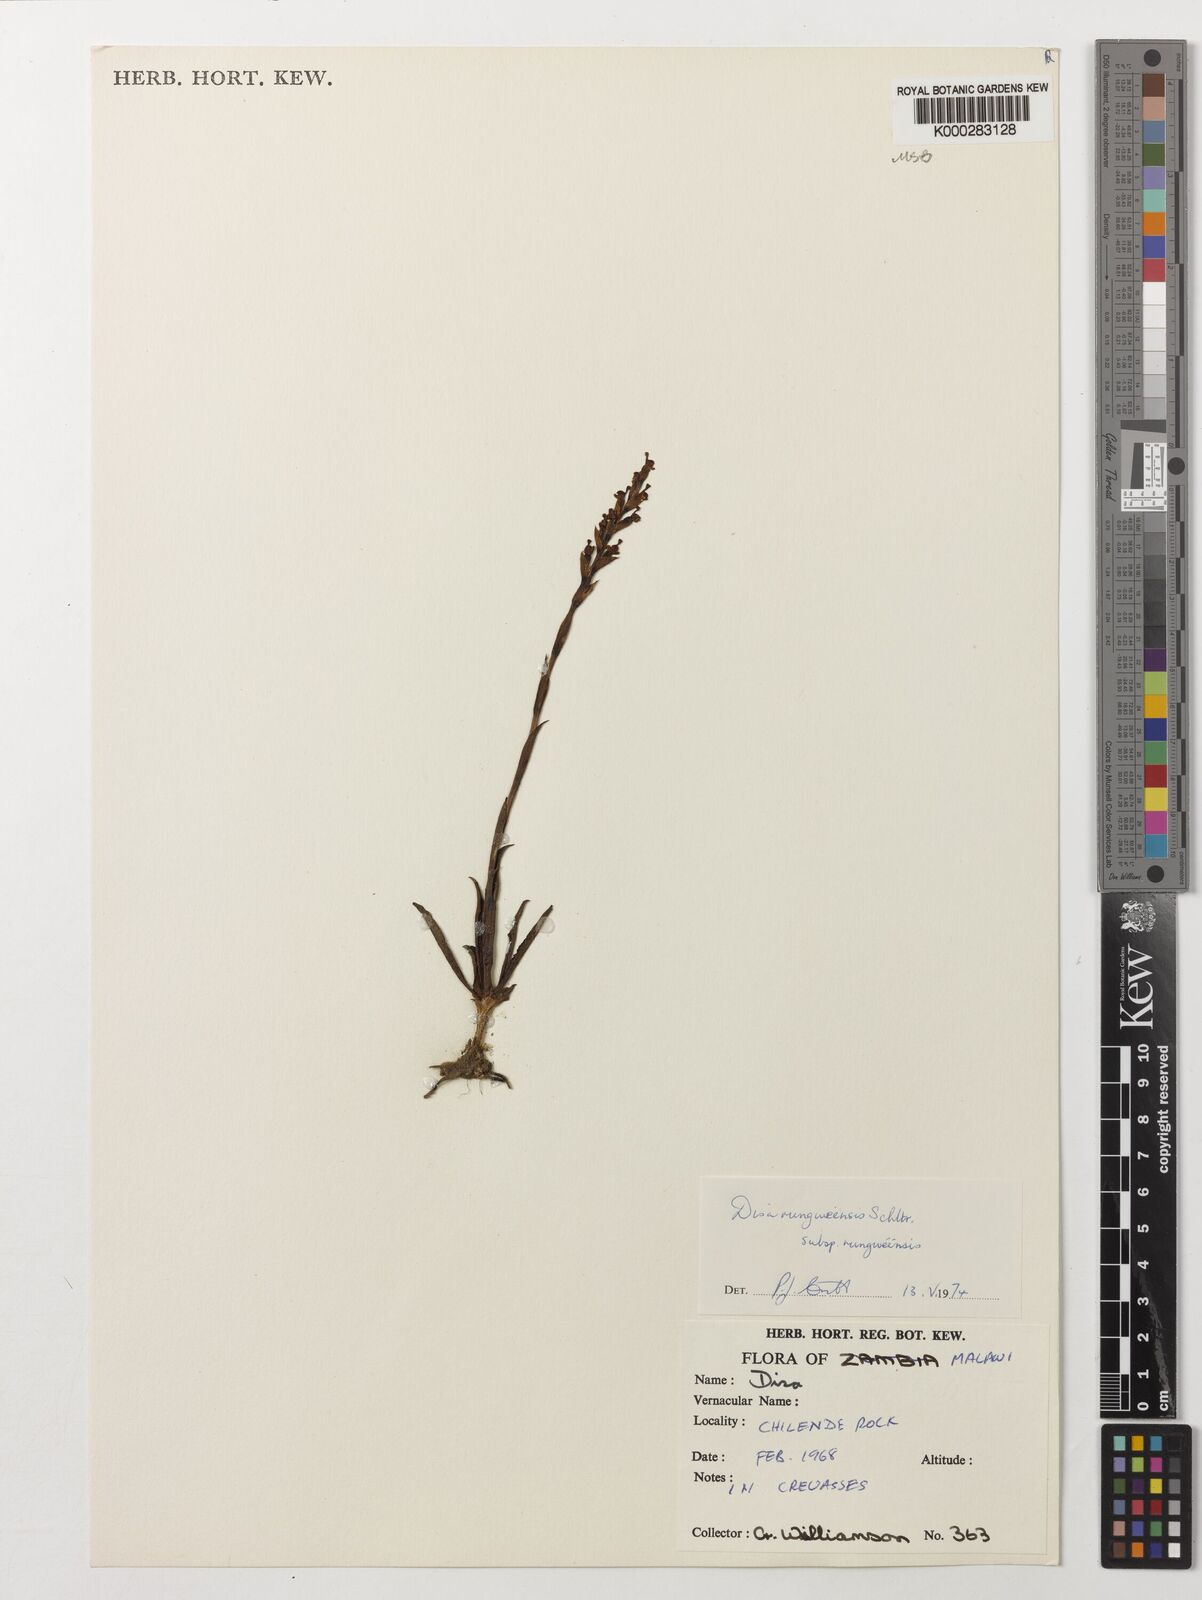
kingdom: Plantae
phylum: Tracheophyta
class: Liliopsida
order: Asparagales
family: Orchidaceae
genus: Disa
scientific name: Disa rungweensis
